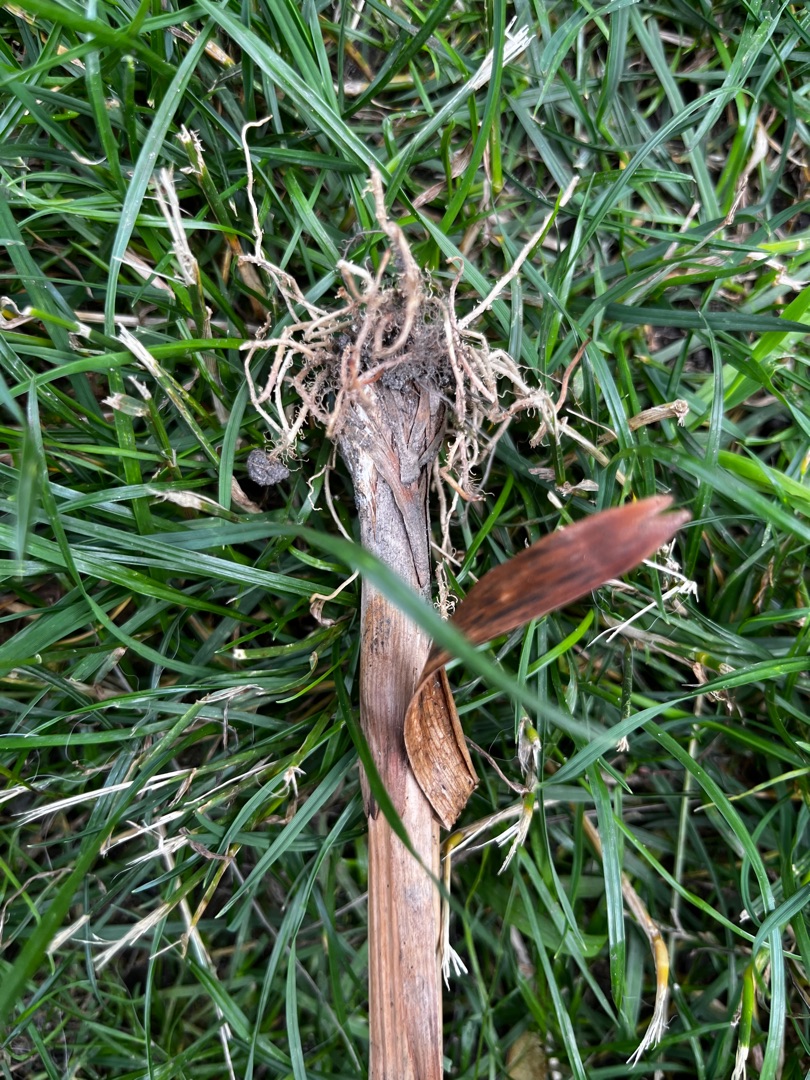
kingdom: Plantae
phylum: Tracheophyta
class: Liliopsida
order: Poales
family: Typhaceae
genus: Typha
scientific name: Typha laxmannii
